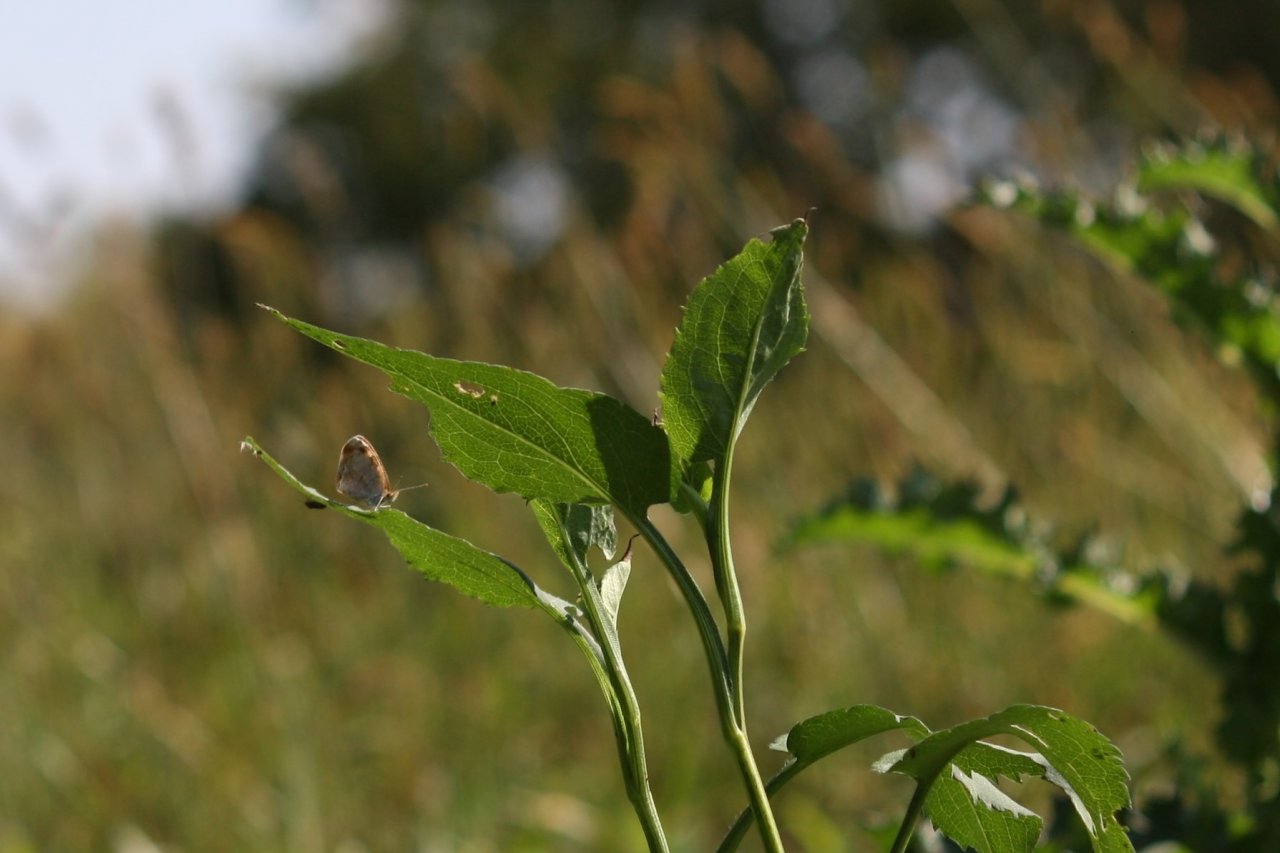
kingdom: Animalia
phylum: Arthropoda
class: Insecta
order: Lepidoptera
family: Nymphalidae
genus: Phyciodes
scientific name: Phyciodes tharos
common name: Pearl Crescent
